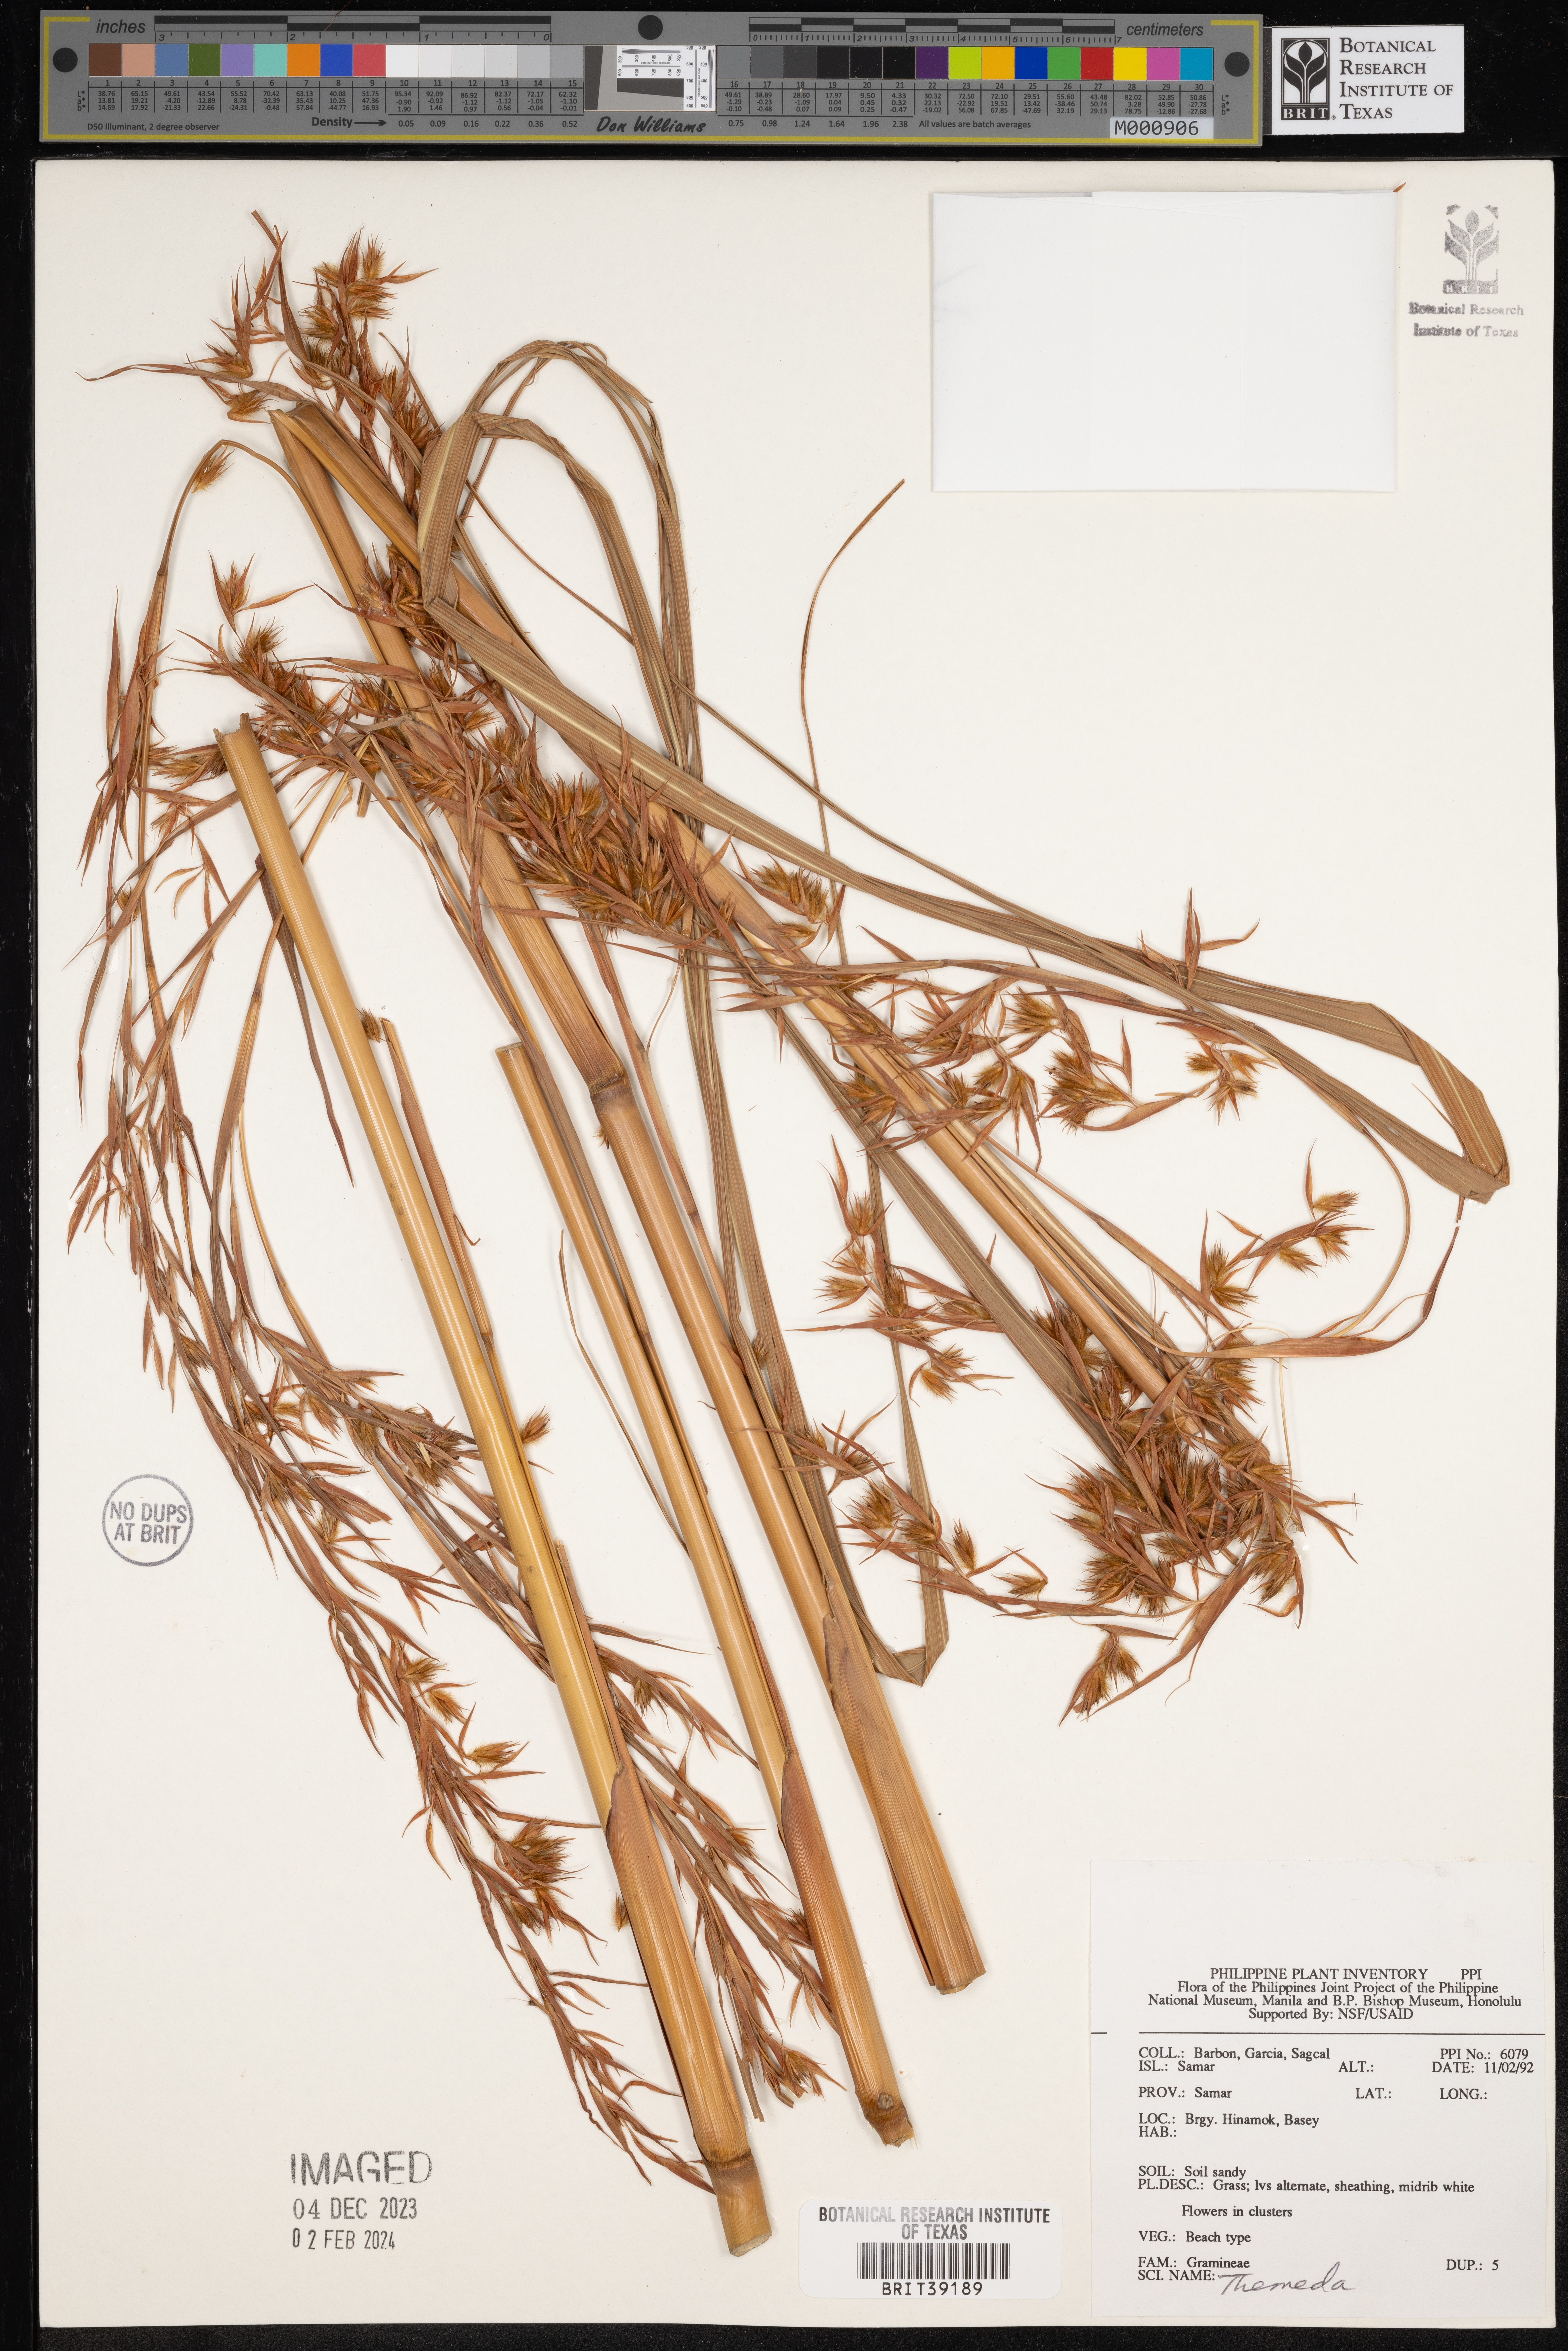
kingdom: Plantae
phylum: Tracheophyta
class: Liliopsida
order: Poales
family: Poaceae
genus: Themeda
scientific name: Themeda
